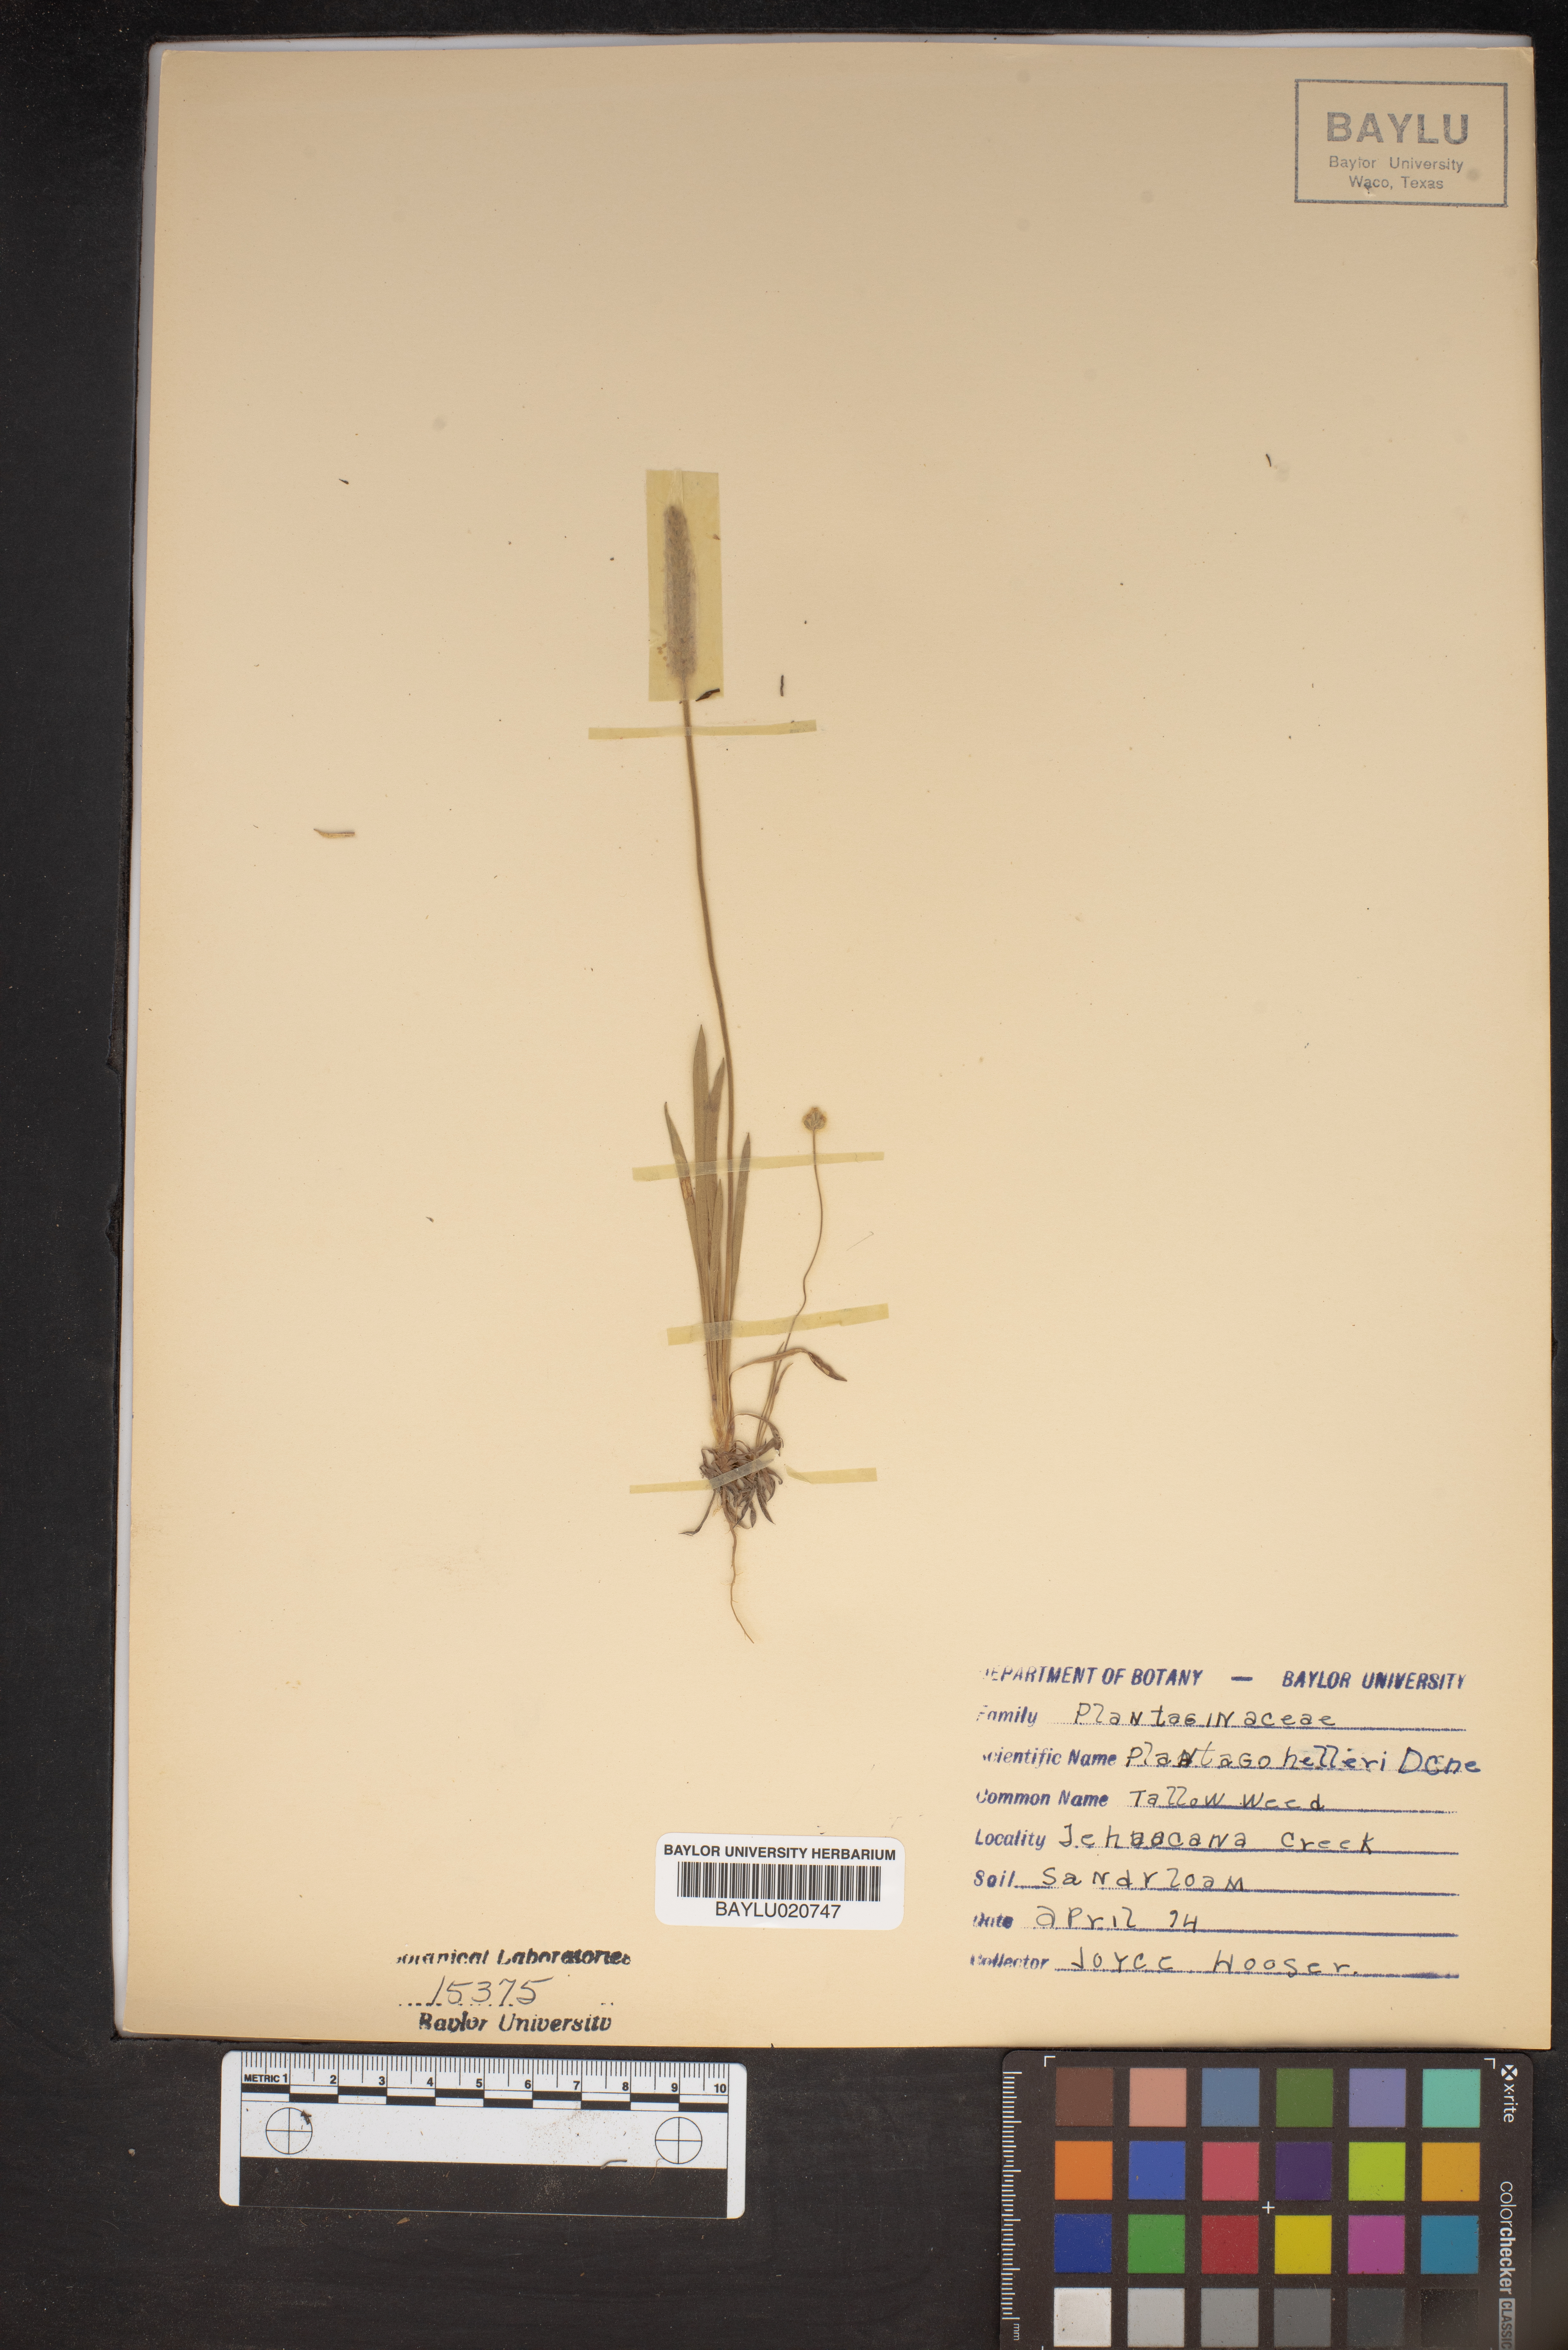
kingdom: Plantae
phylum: Tracheophyta
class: Magnoliopsida
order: Lamiales
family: Plantaginaceae
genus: Plantago
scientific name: Plantago helleri
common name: Heller's plantain
